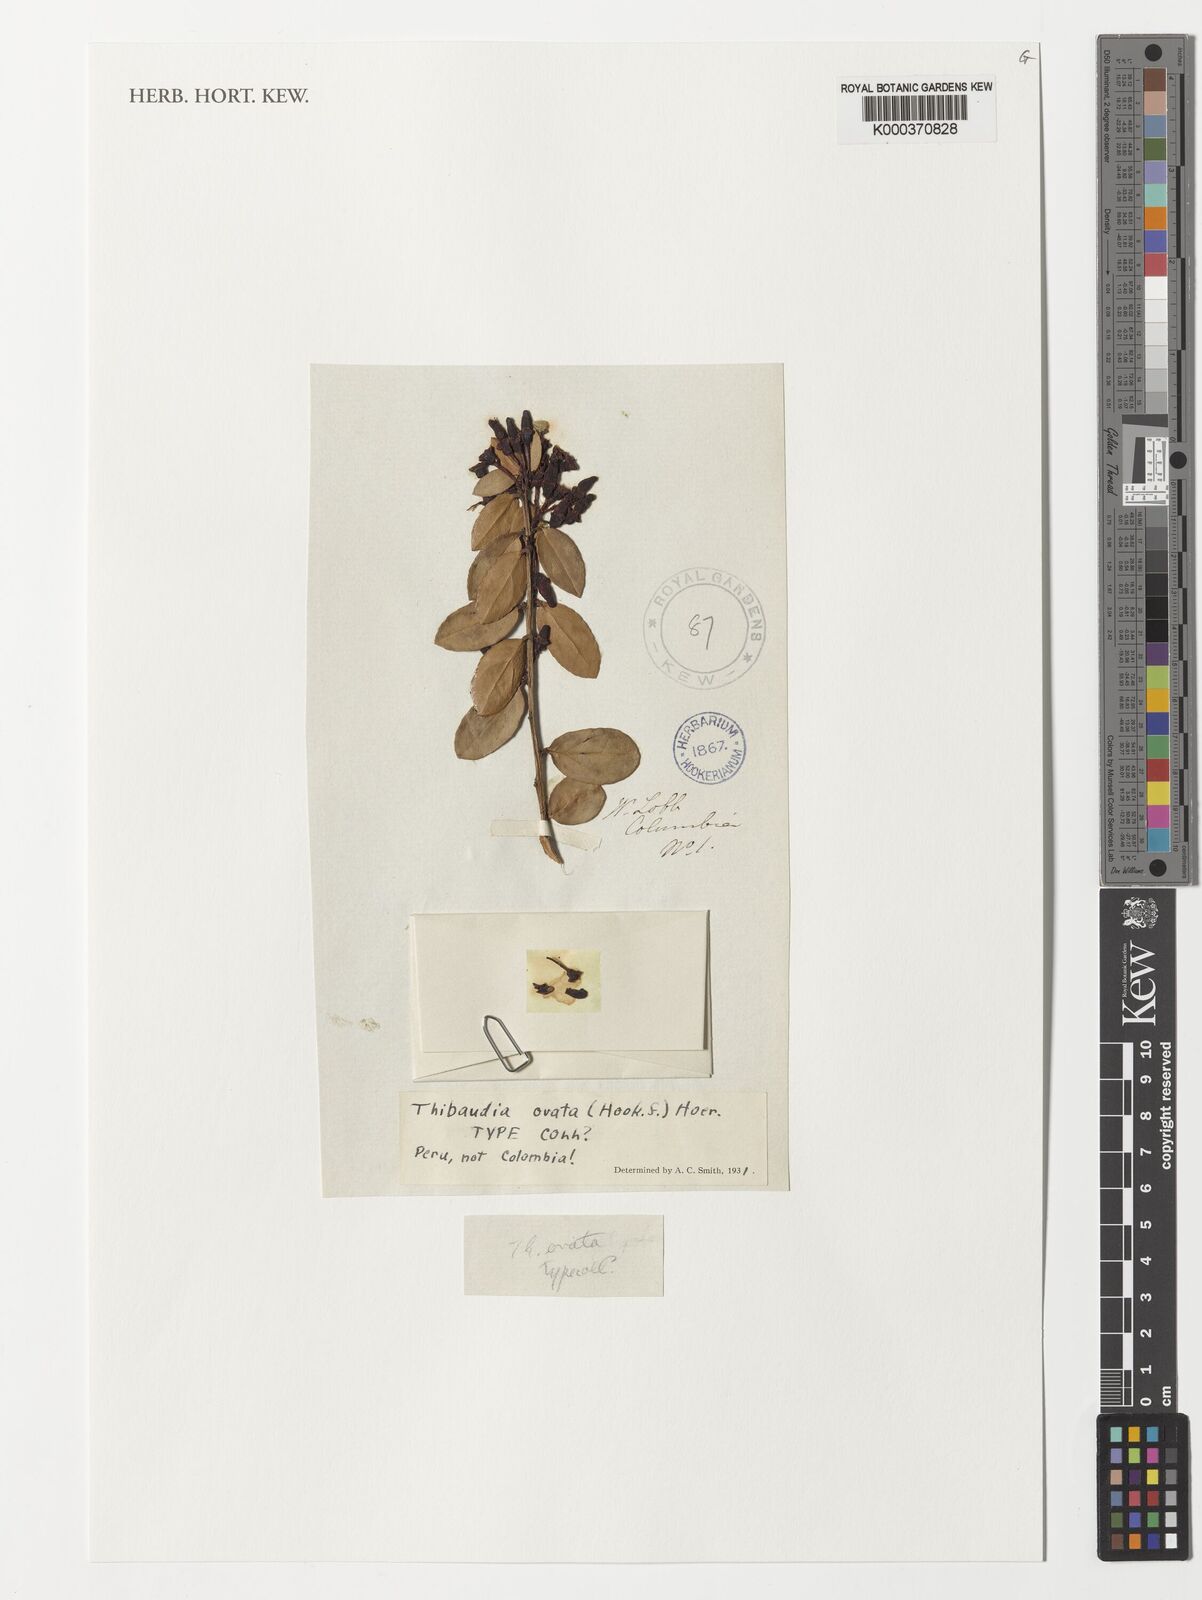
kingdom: Plantae
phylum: Tracheophyta
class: Magnoliopsida
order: Ericales
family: Ericaceae
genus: Thibaudia
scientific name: Thibaudia diphylla
